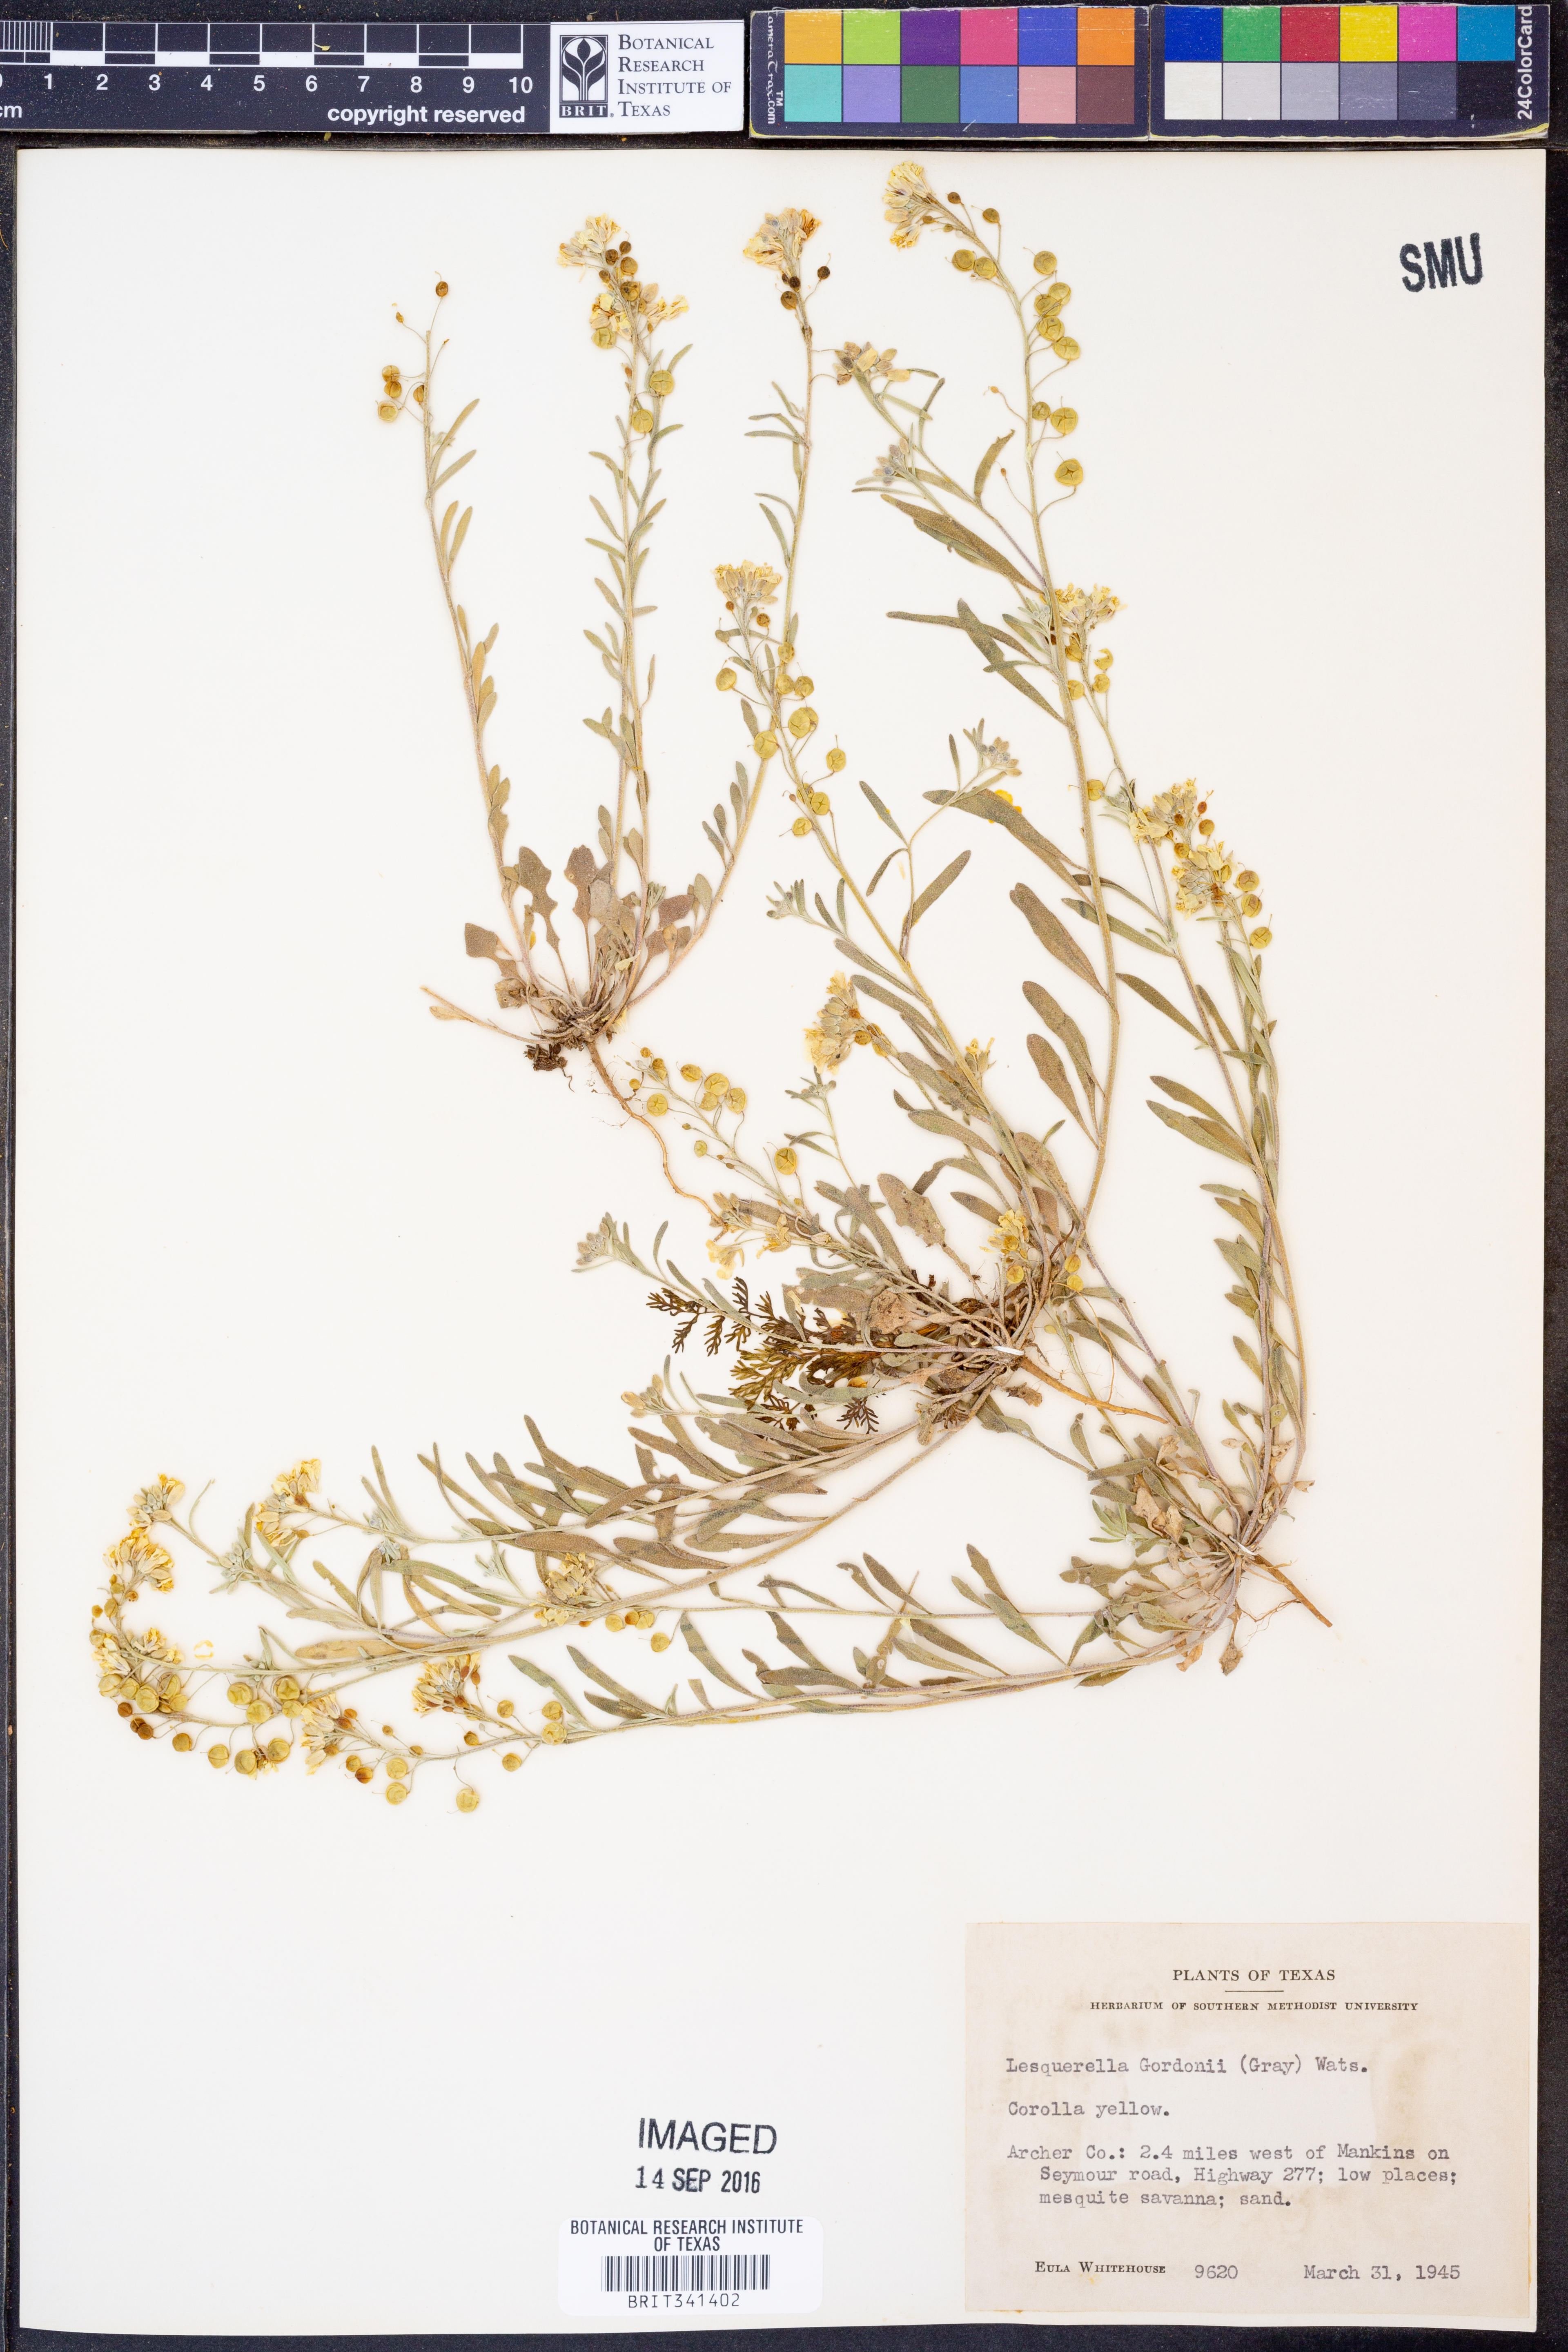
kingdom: Plantae
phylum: Tracheophyta
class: Magnoliopsida
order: Brassicales
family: Brassicaceae
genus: Physaria
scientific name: Physaria gordonii
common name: Gordon's bladderpod
